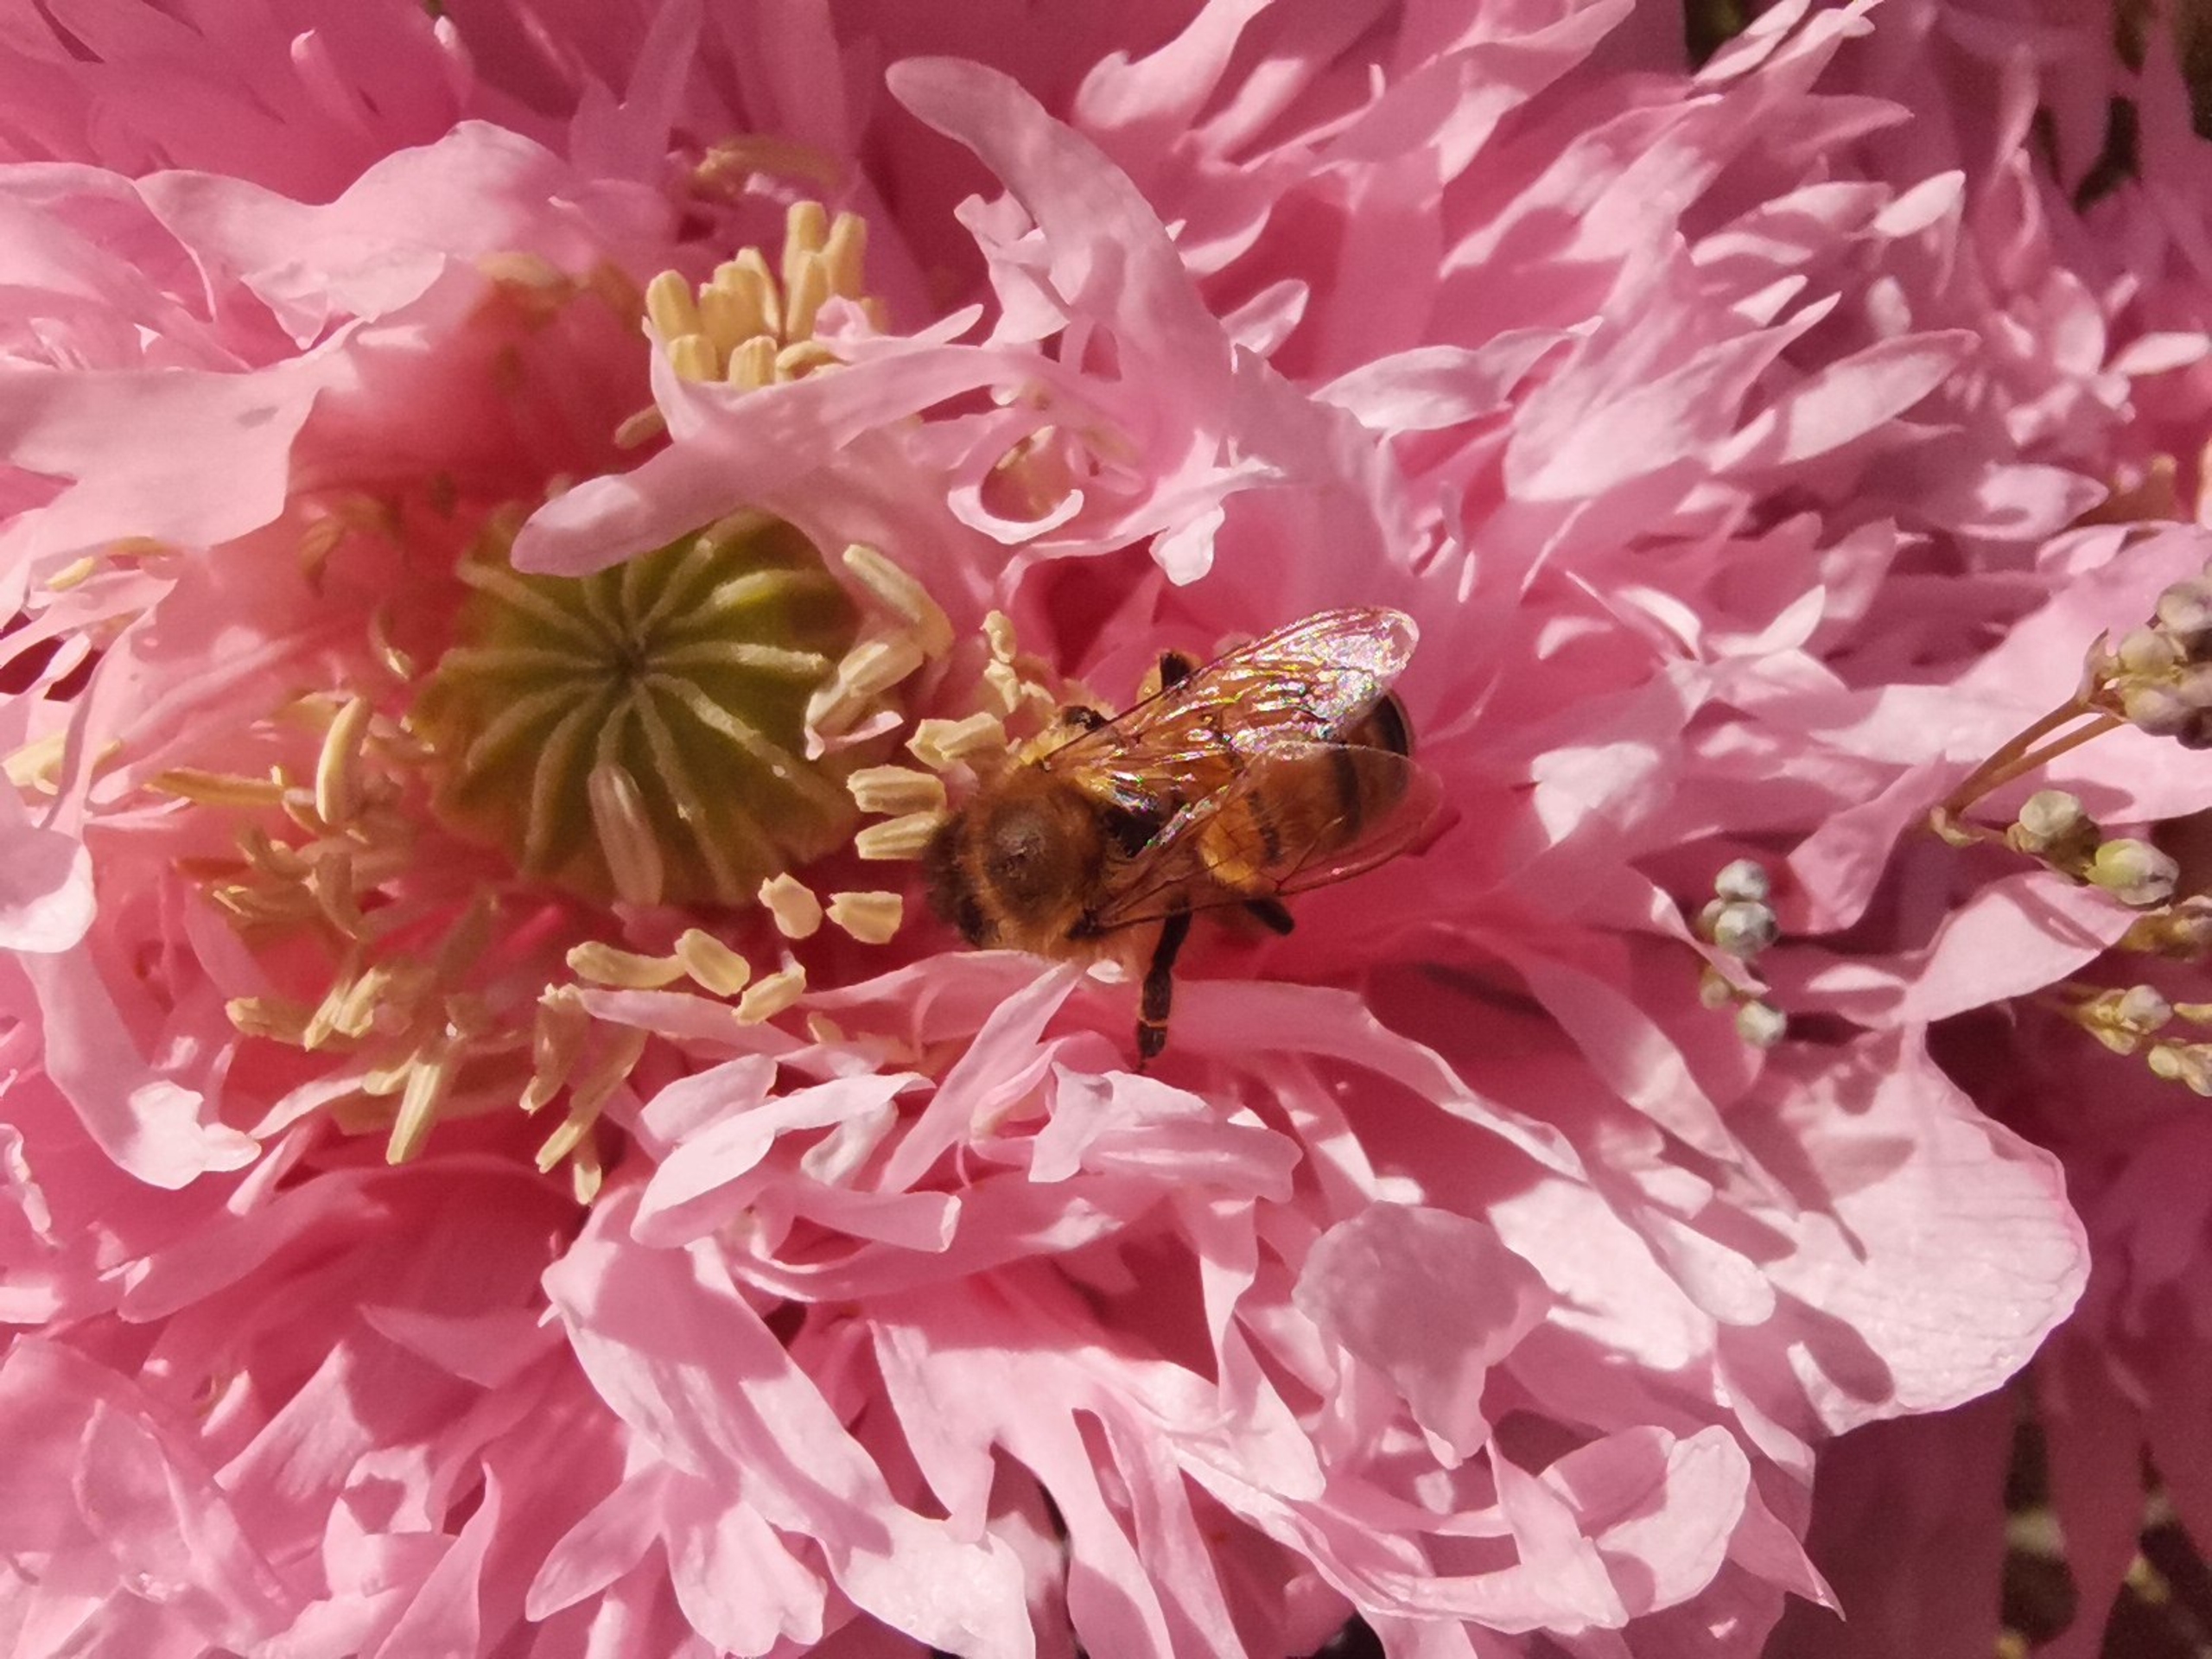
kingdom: Animalia
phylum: Arthropoda
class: Insecta
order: Hymenoptera
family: Apidae
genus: Apis
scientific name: Apis mellifera
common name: Honningbi
